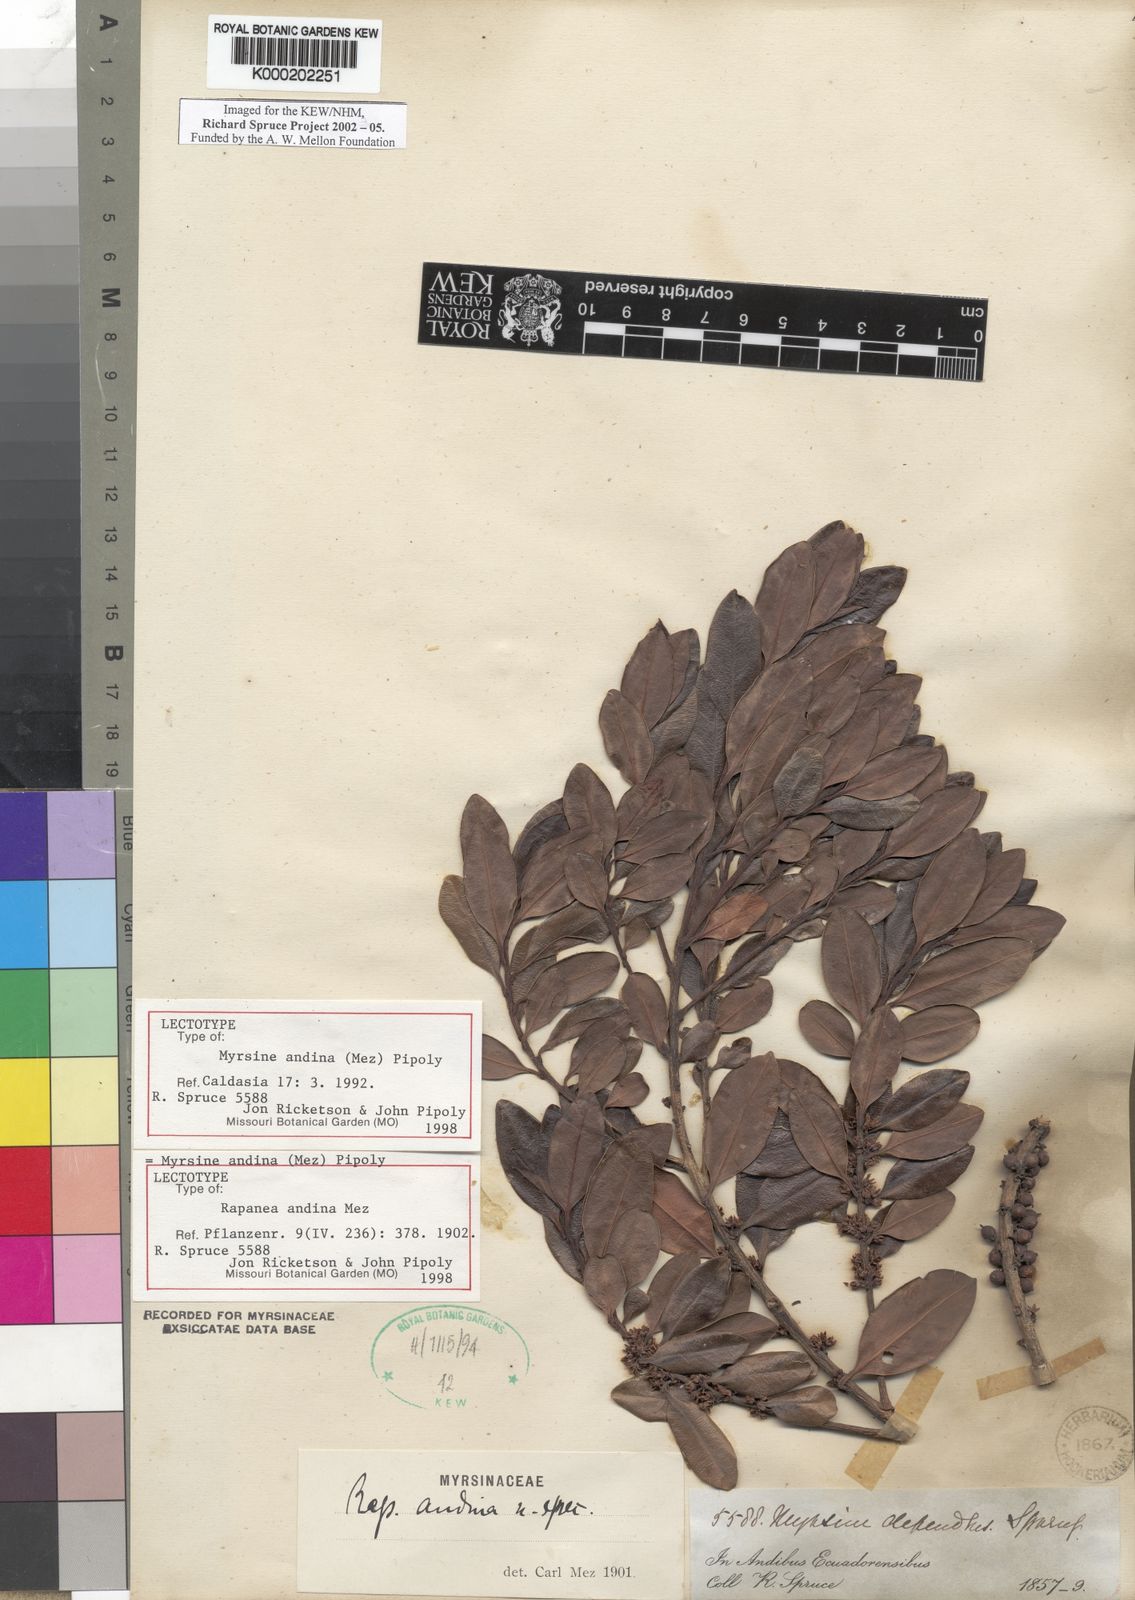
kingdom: Plantae
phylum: Tracheophyta
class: Magnoliopsida
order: Ericales
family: Primulaceae
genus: Myrsine
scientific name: Myrsine andina
